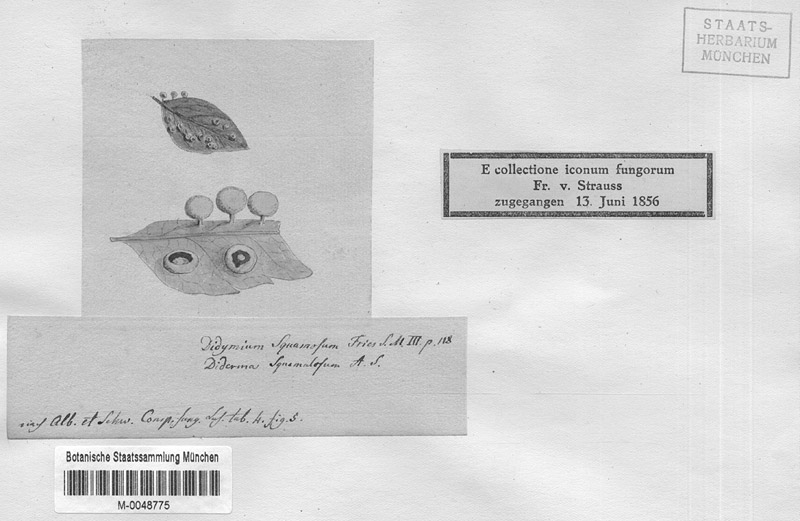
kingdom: Protozoa
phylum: Mycetozoa
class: Myxomycetes
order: Physarales
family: Didymiaceae
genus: Didymium
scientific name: Didymium squamulosum
